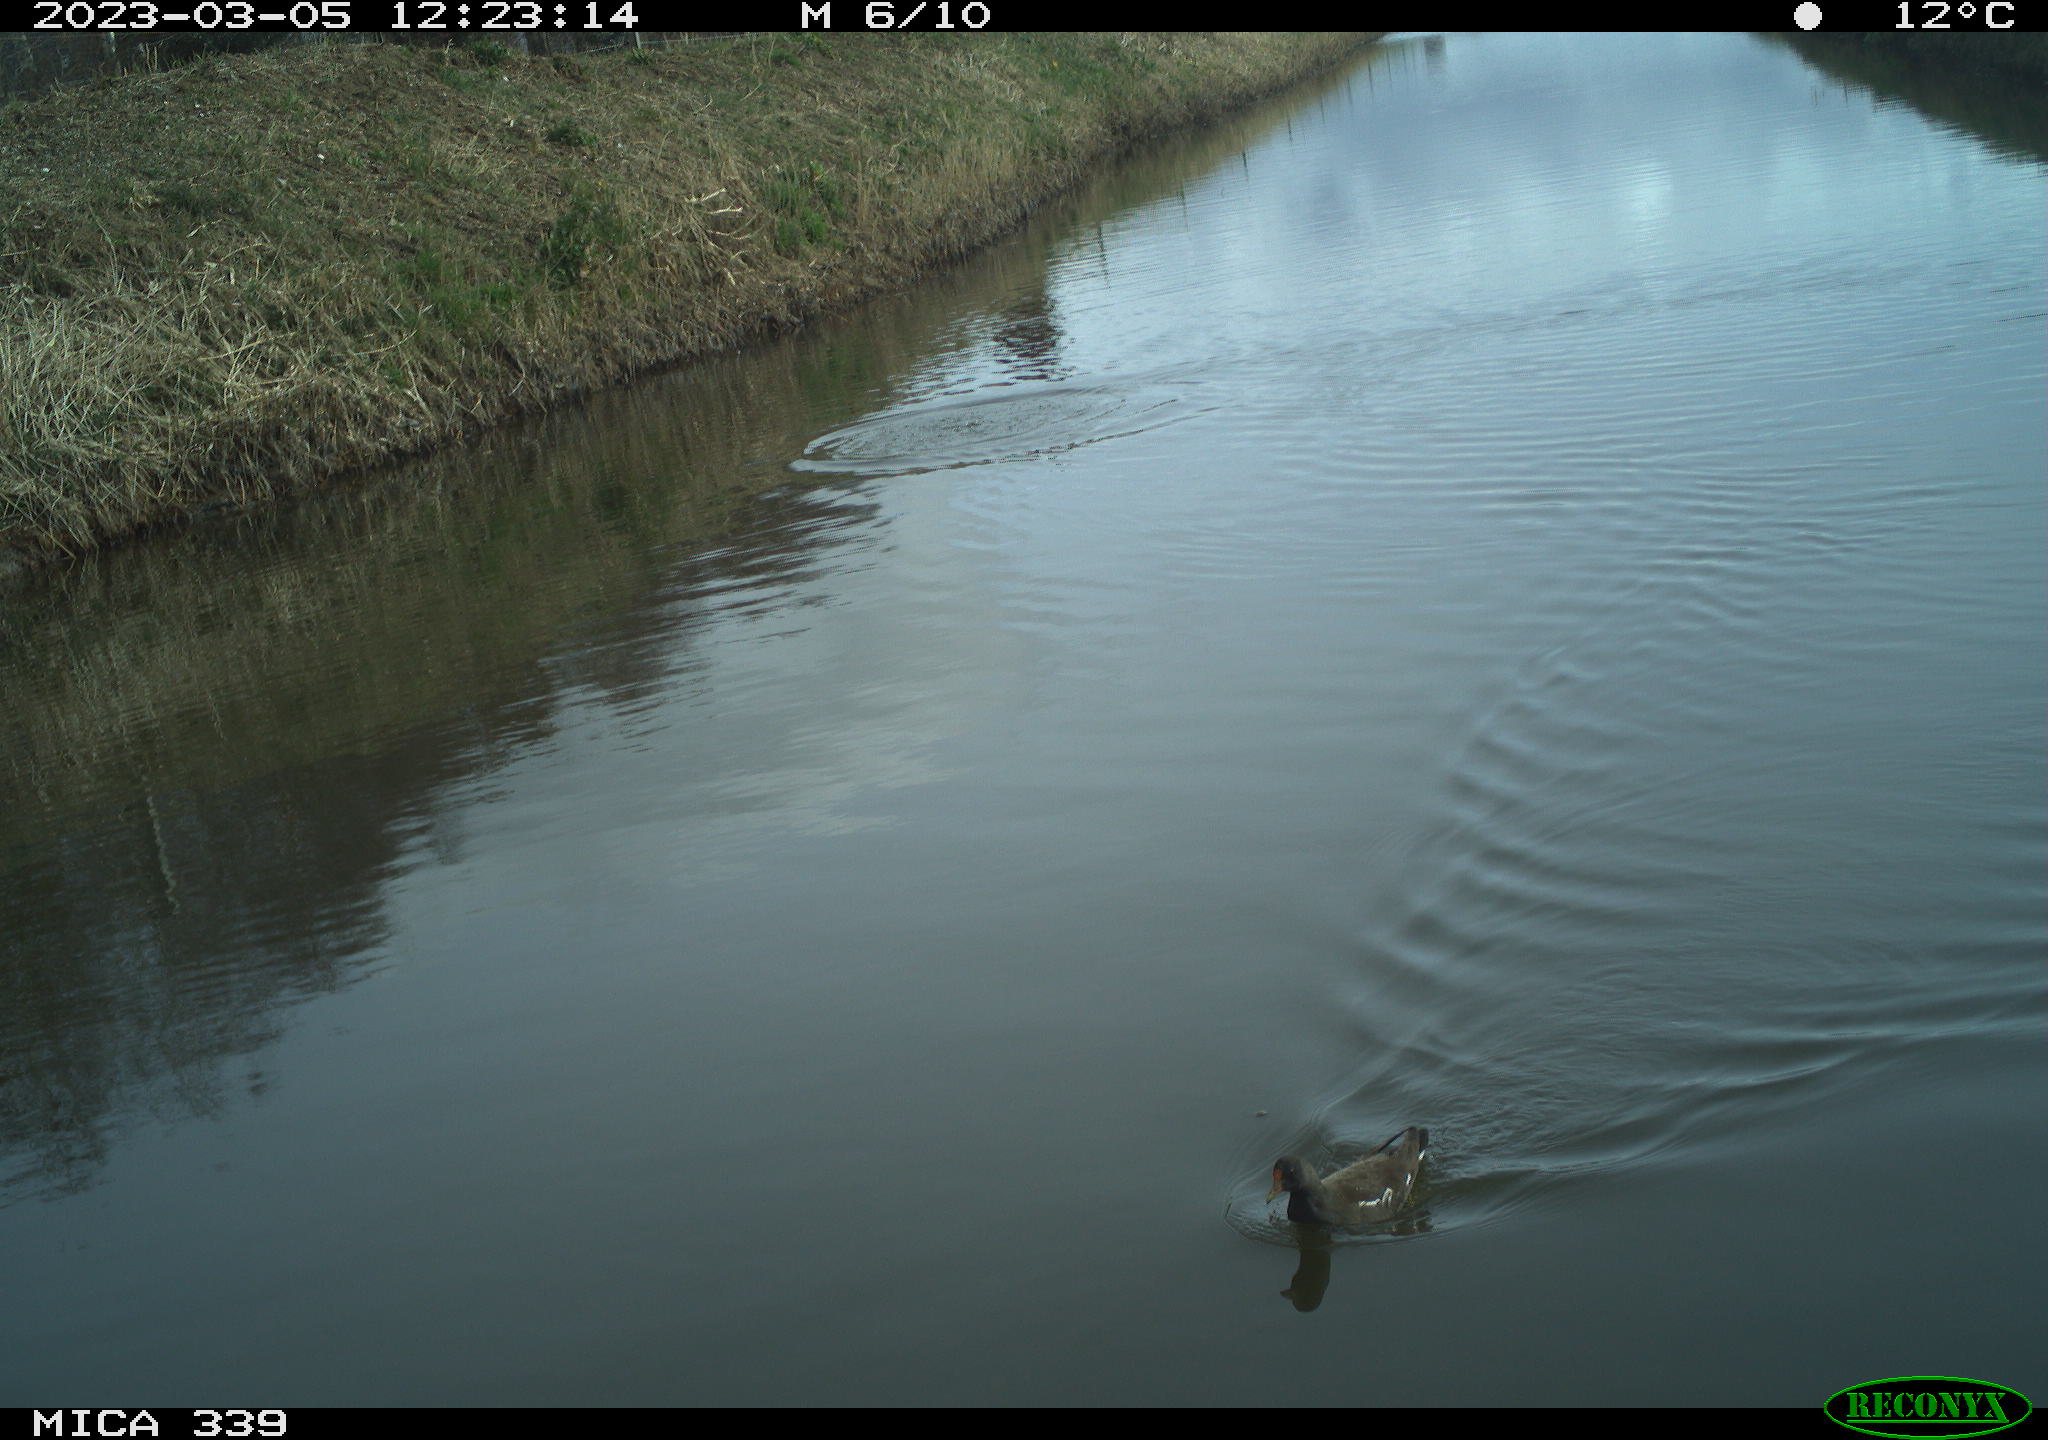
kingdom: Animalia
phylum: Chordata
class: Aves
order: Gruiformes
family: Rallidae
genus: Fulica
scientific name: Fulica atra
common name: Eurasian coot
